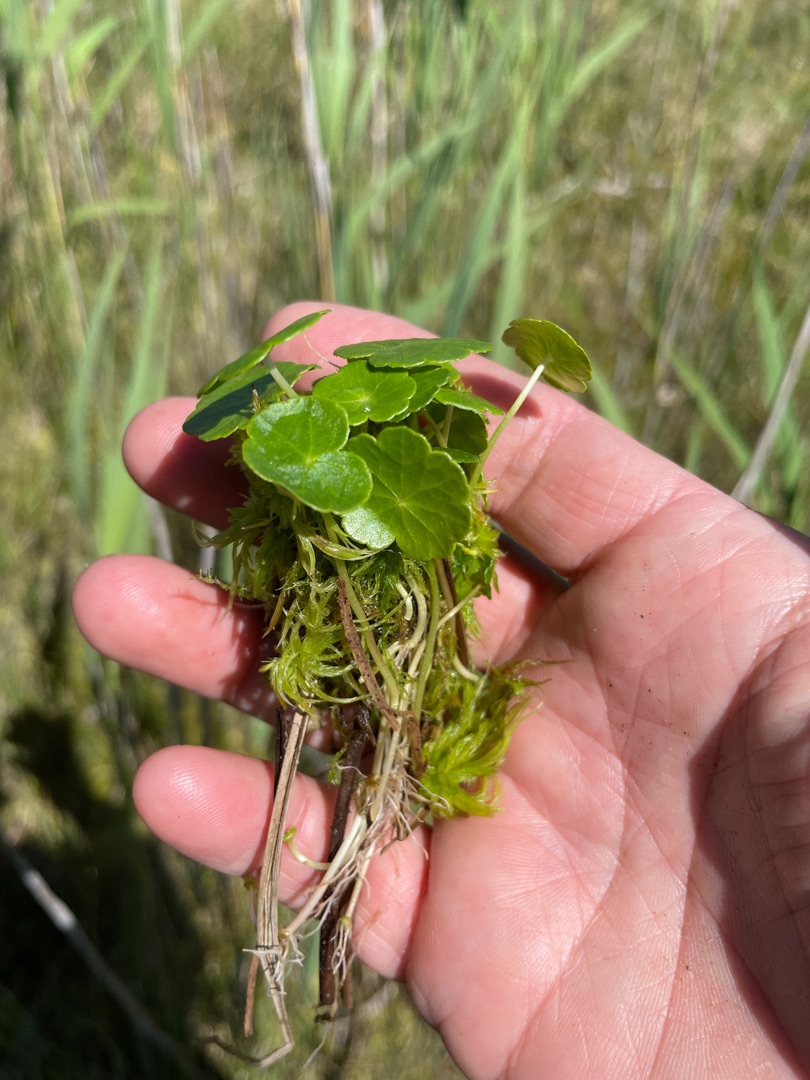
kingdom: Plantae
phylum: Tracheophyta
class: Magnoliopsida
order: Apiales
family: Araliaceae
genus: Hydrocotyle
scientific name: Hydrocotyle vulgaris
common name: Vandnavle
